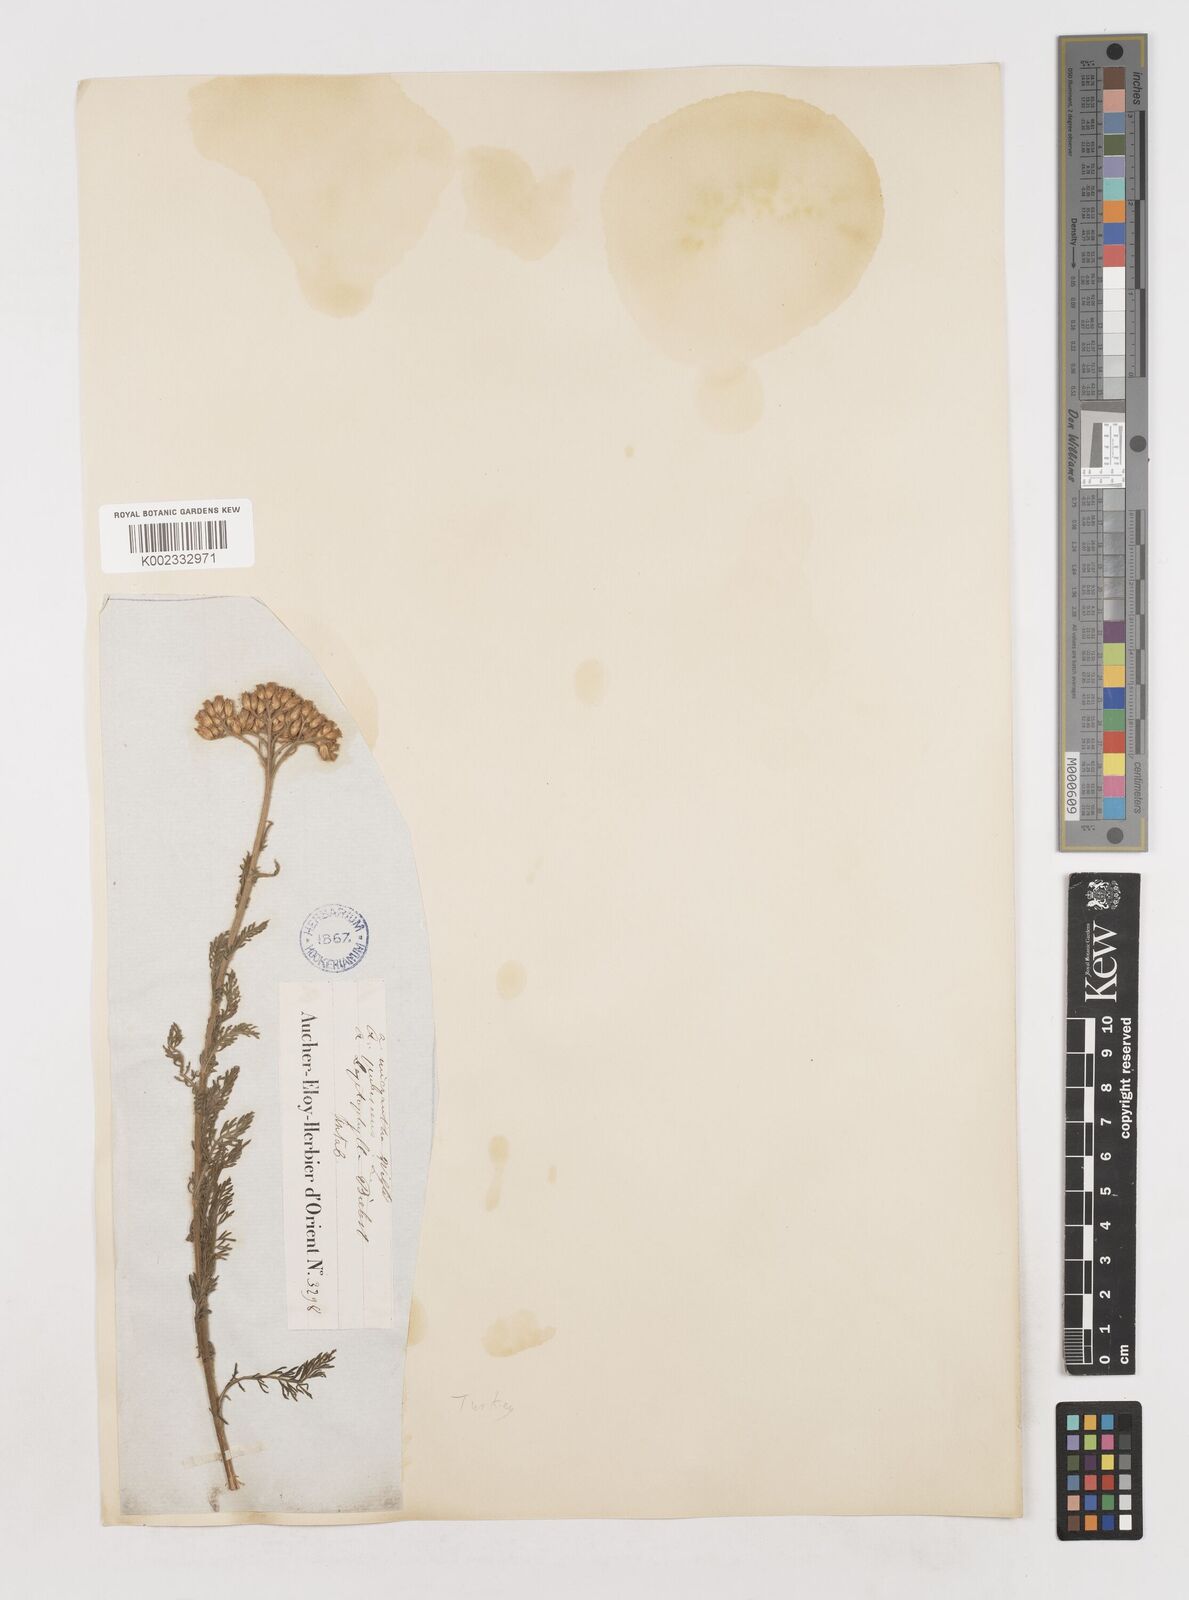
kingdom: Plantae
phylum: Tracheophyta
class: Magnoliopsida
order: Asterales
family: Asteraceae
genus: Achillea
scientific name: Achillea arabica
